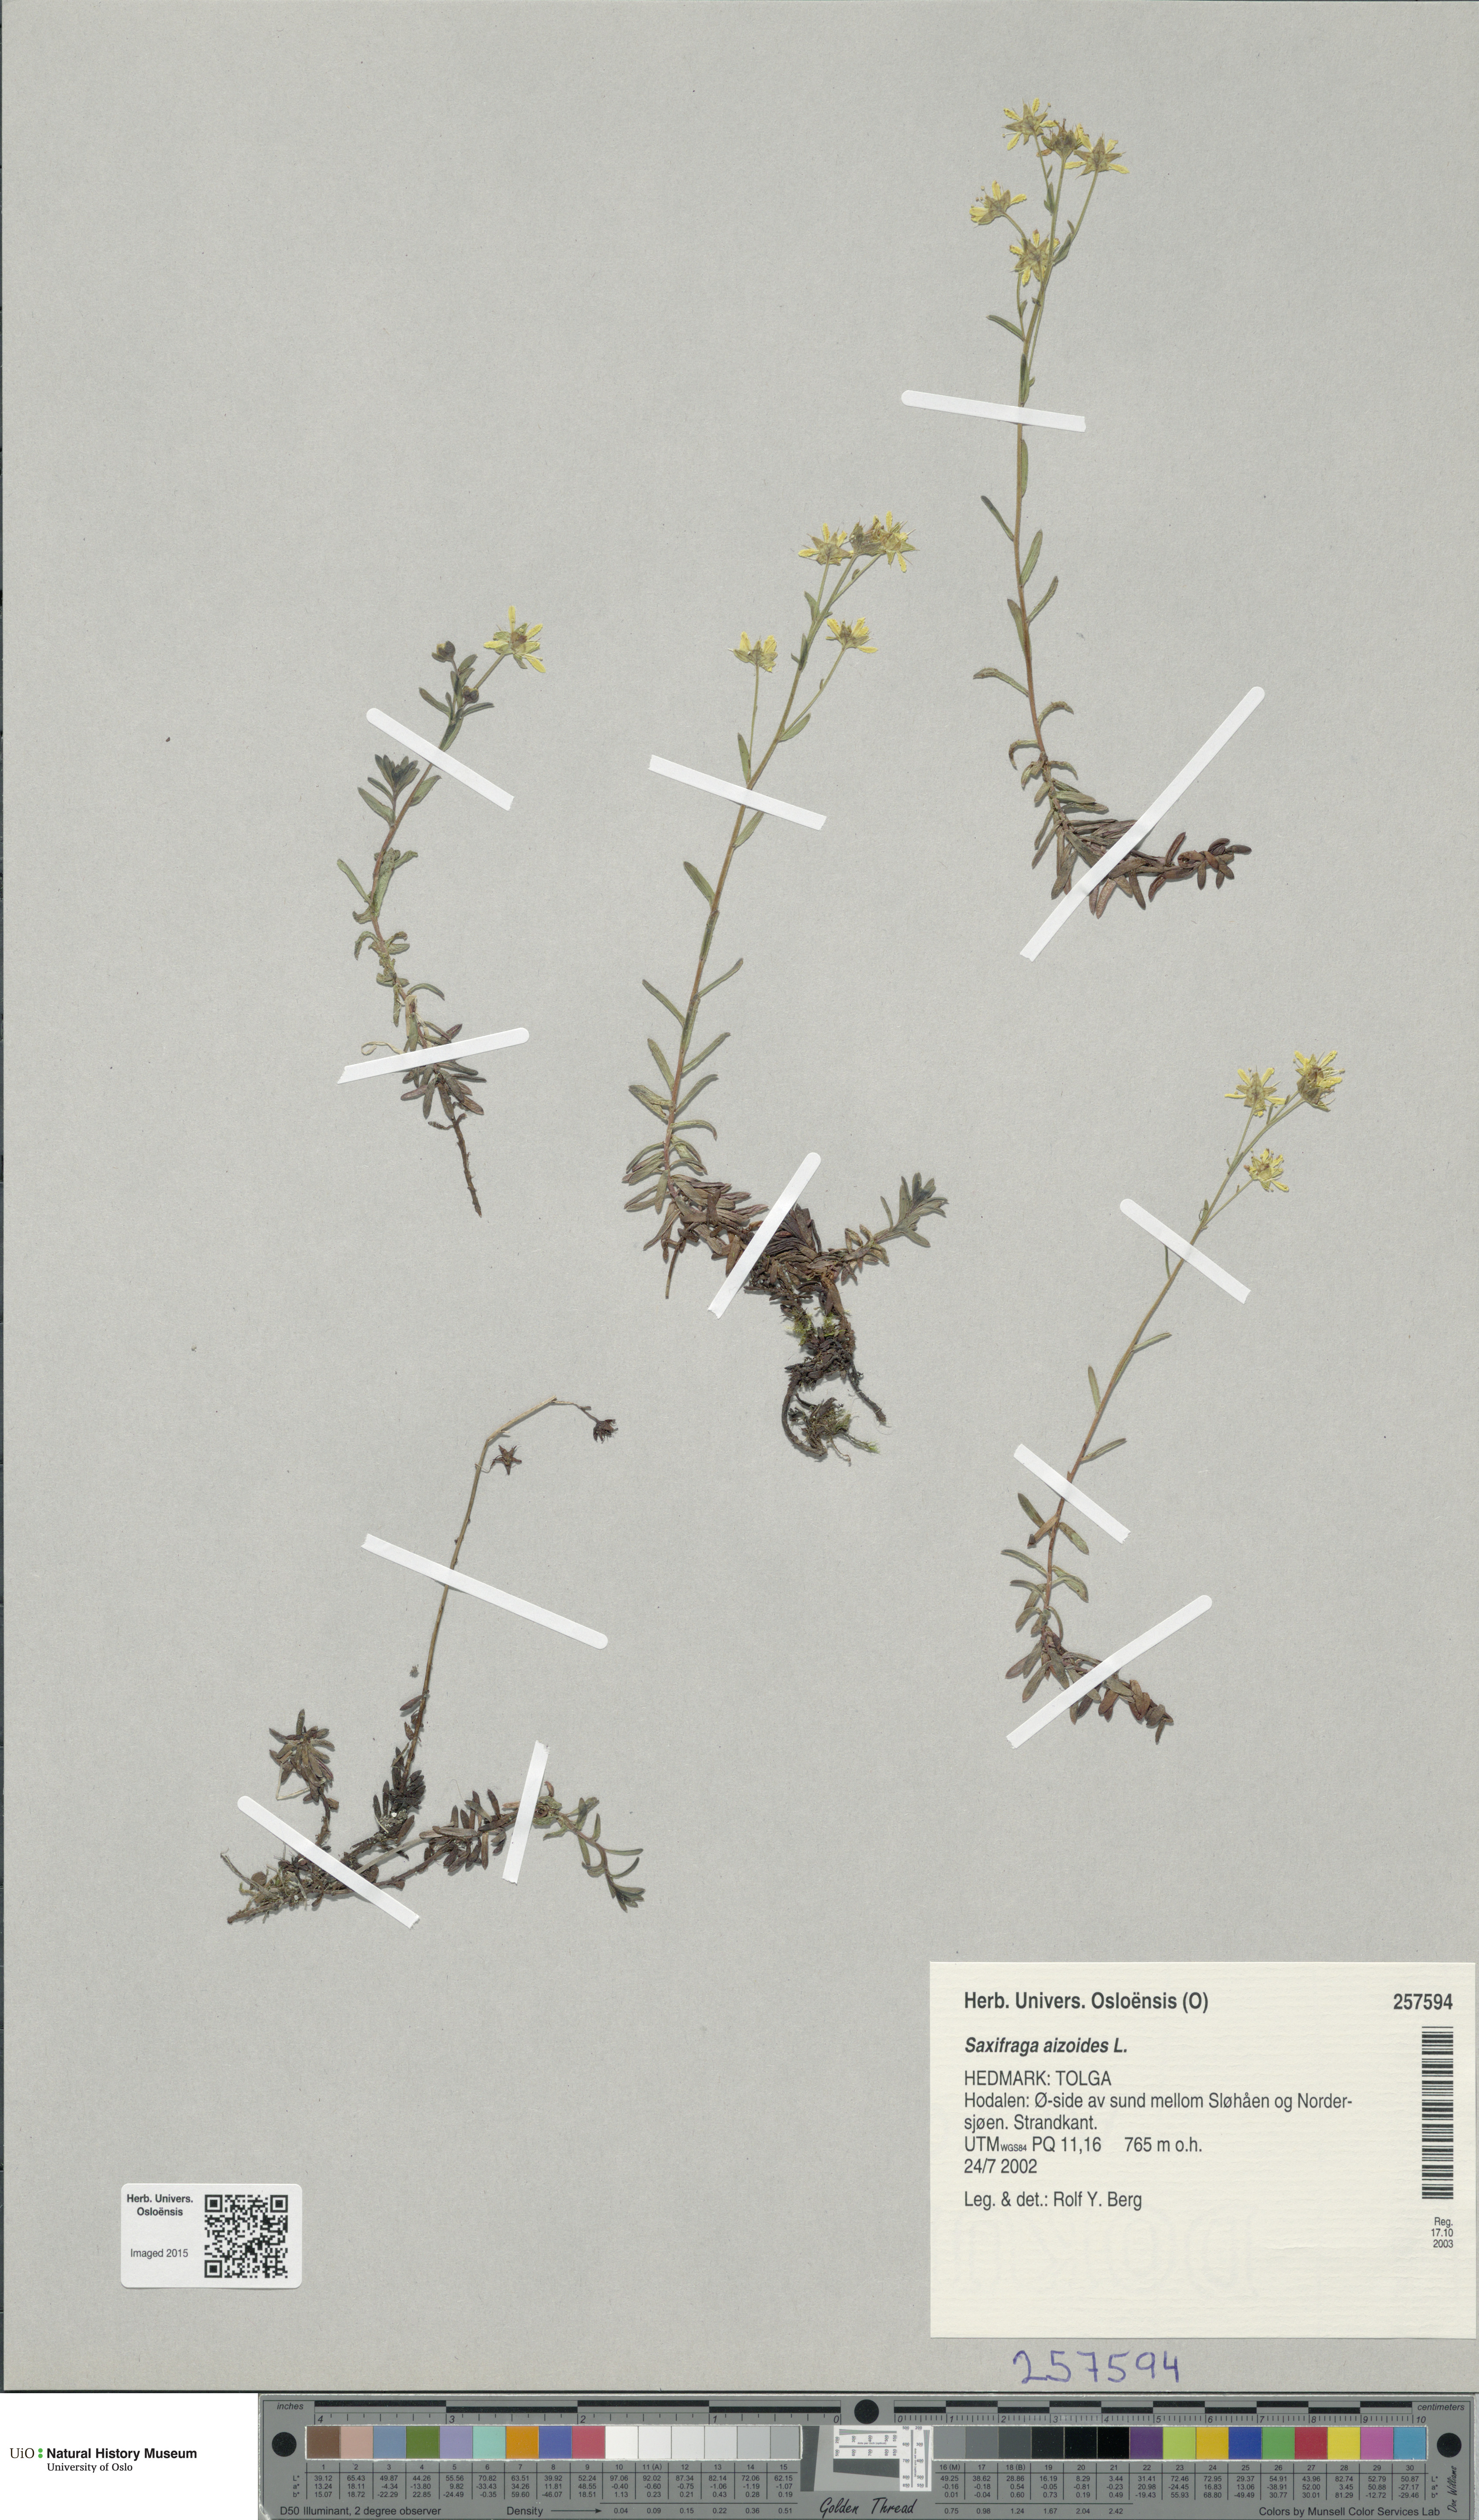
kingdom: Plantae
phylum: Tracheophyta
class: Magnoliopsida
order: Saxifragales
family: Saxifragaceae
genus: Saxifraga
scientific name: Saxifraga aizoides
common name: Yellow mountain saxifrage
